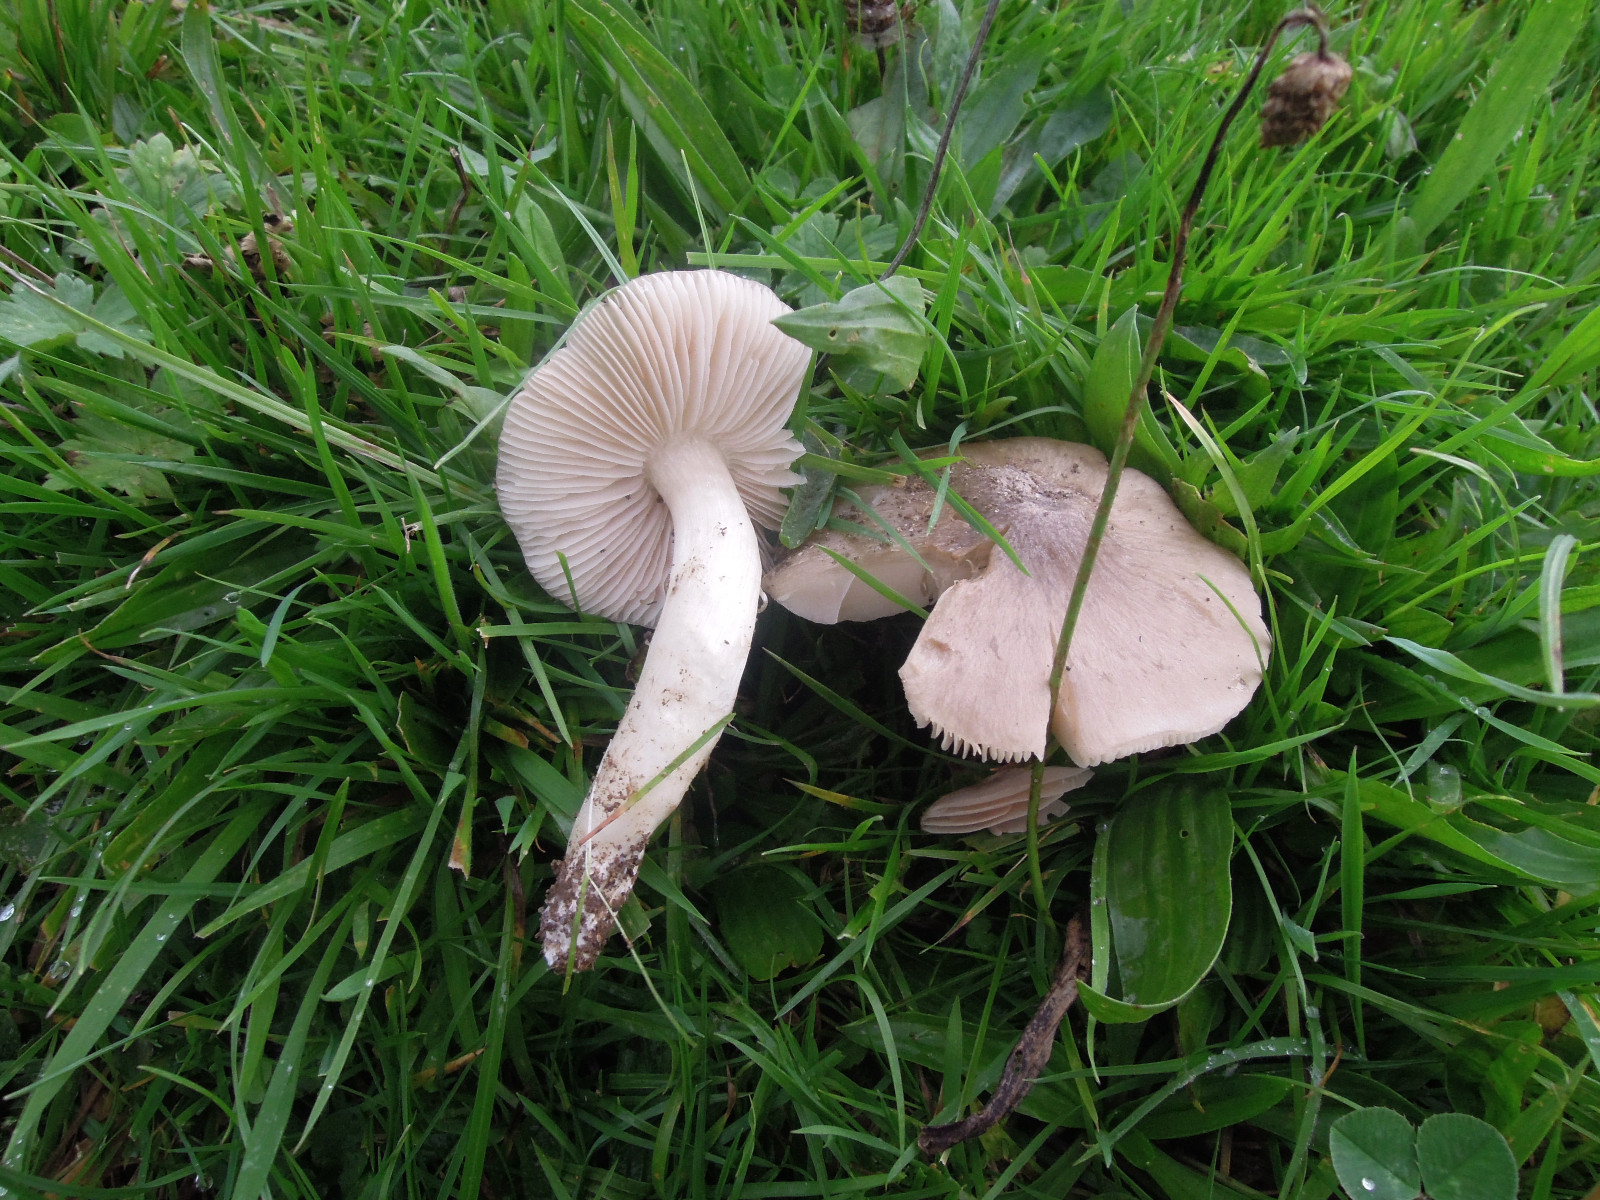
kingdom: Fungi
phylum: Basidiomycota
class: Agaricomycetes
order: Agaricales
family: Entolomataceae
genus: Entoloma
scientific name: Entoloma prunuloides
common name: mel-rødblad
